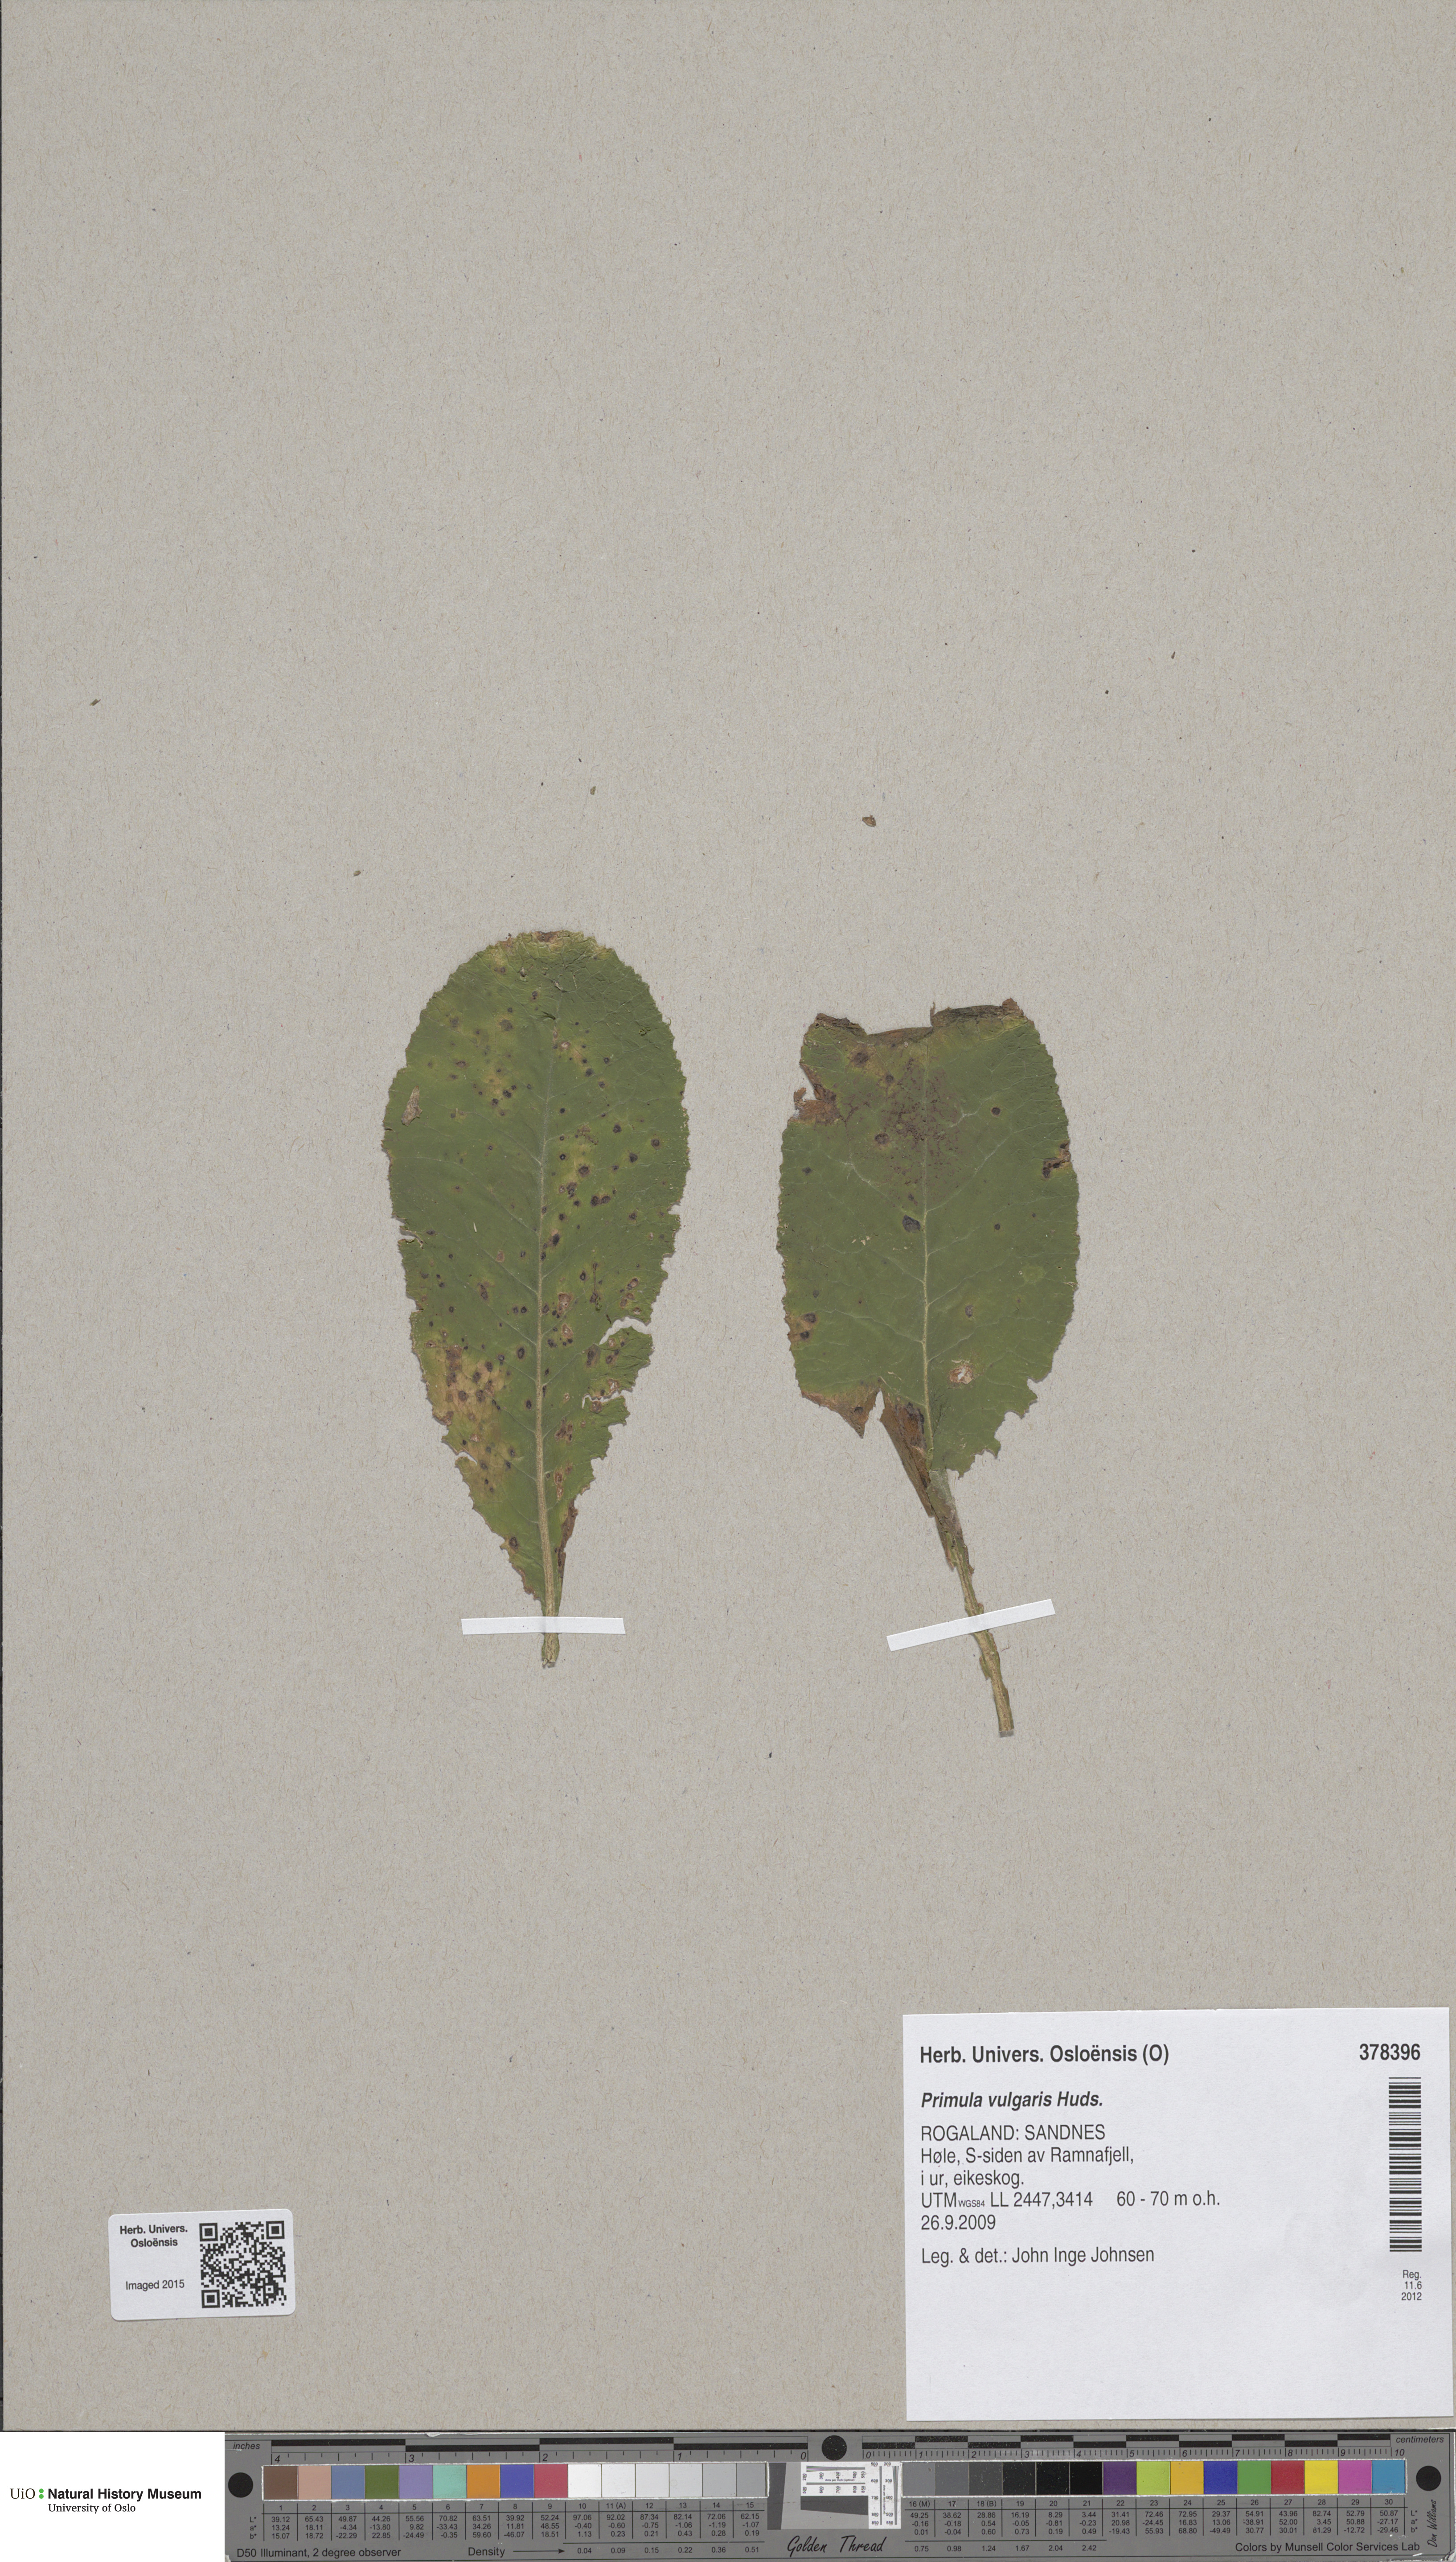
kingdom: Plantae
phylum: Tracheophyta
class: Magnoliopsida
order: Ericales
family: Primulaceae
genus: Primula
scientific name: Primula vulgaris
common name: Primrose
